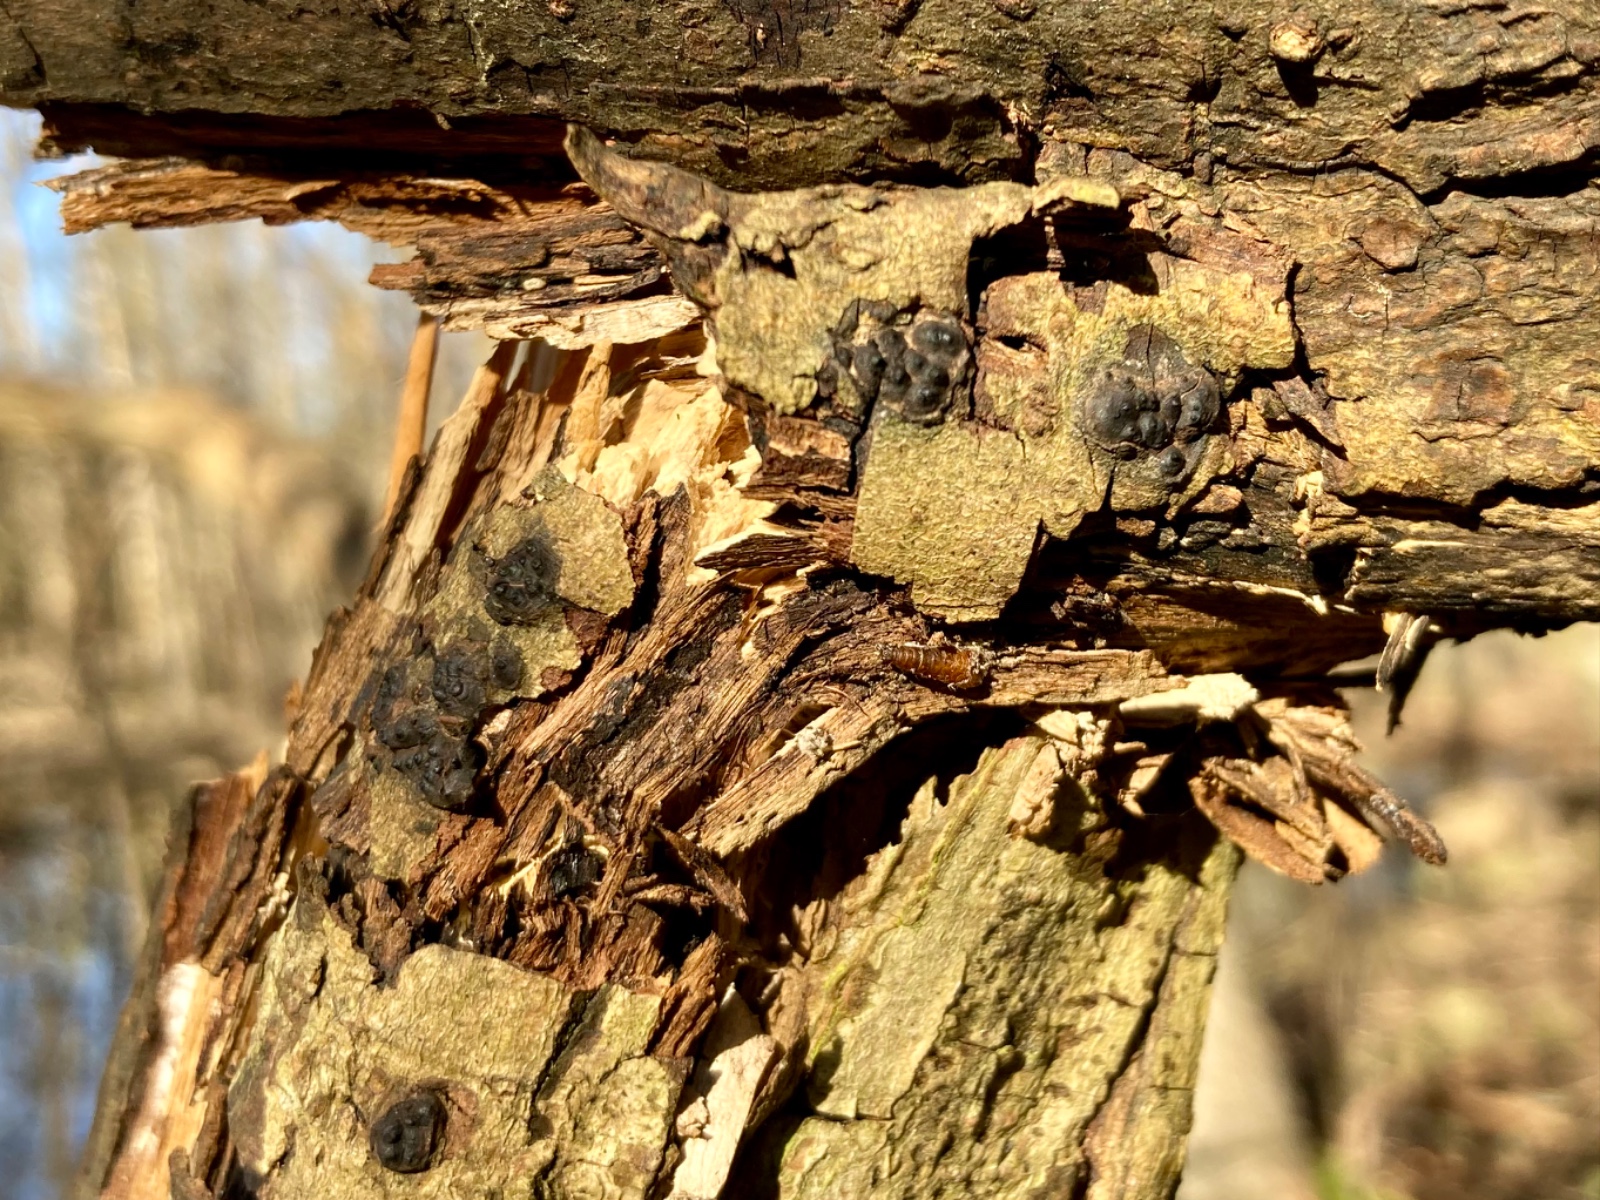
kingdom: Fungi
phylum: Ascomycota
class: Sordariomycetes
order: Xylariales
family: Xylariaceae
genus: Entoleuca
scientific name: Entoleuca mammata
